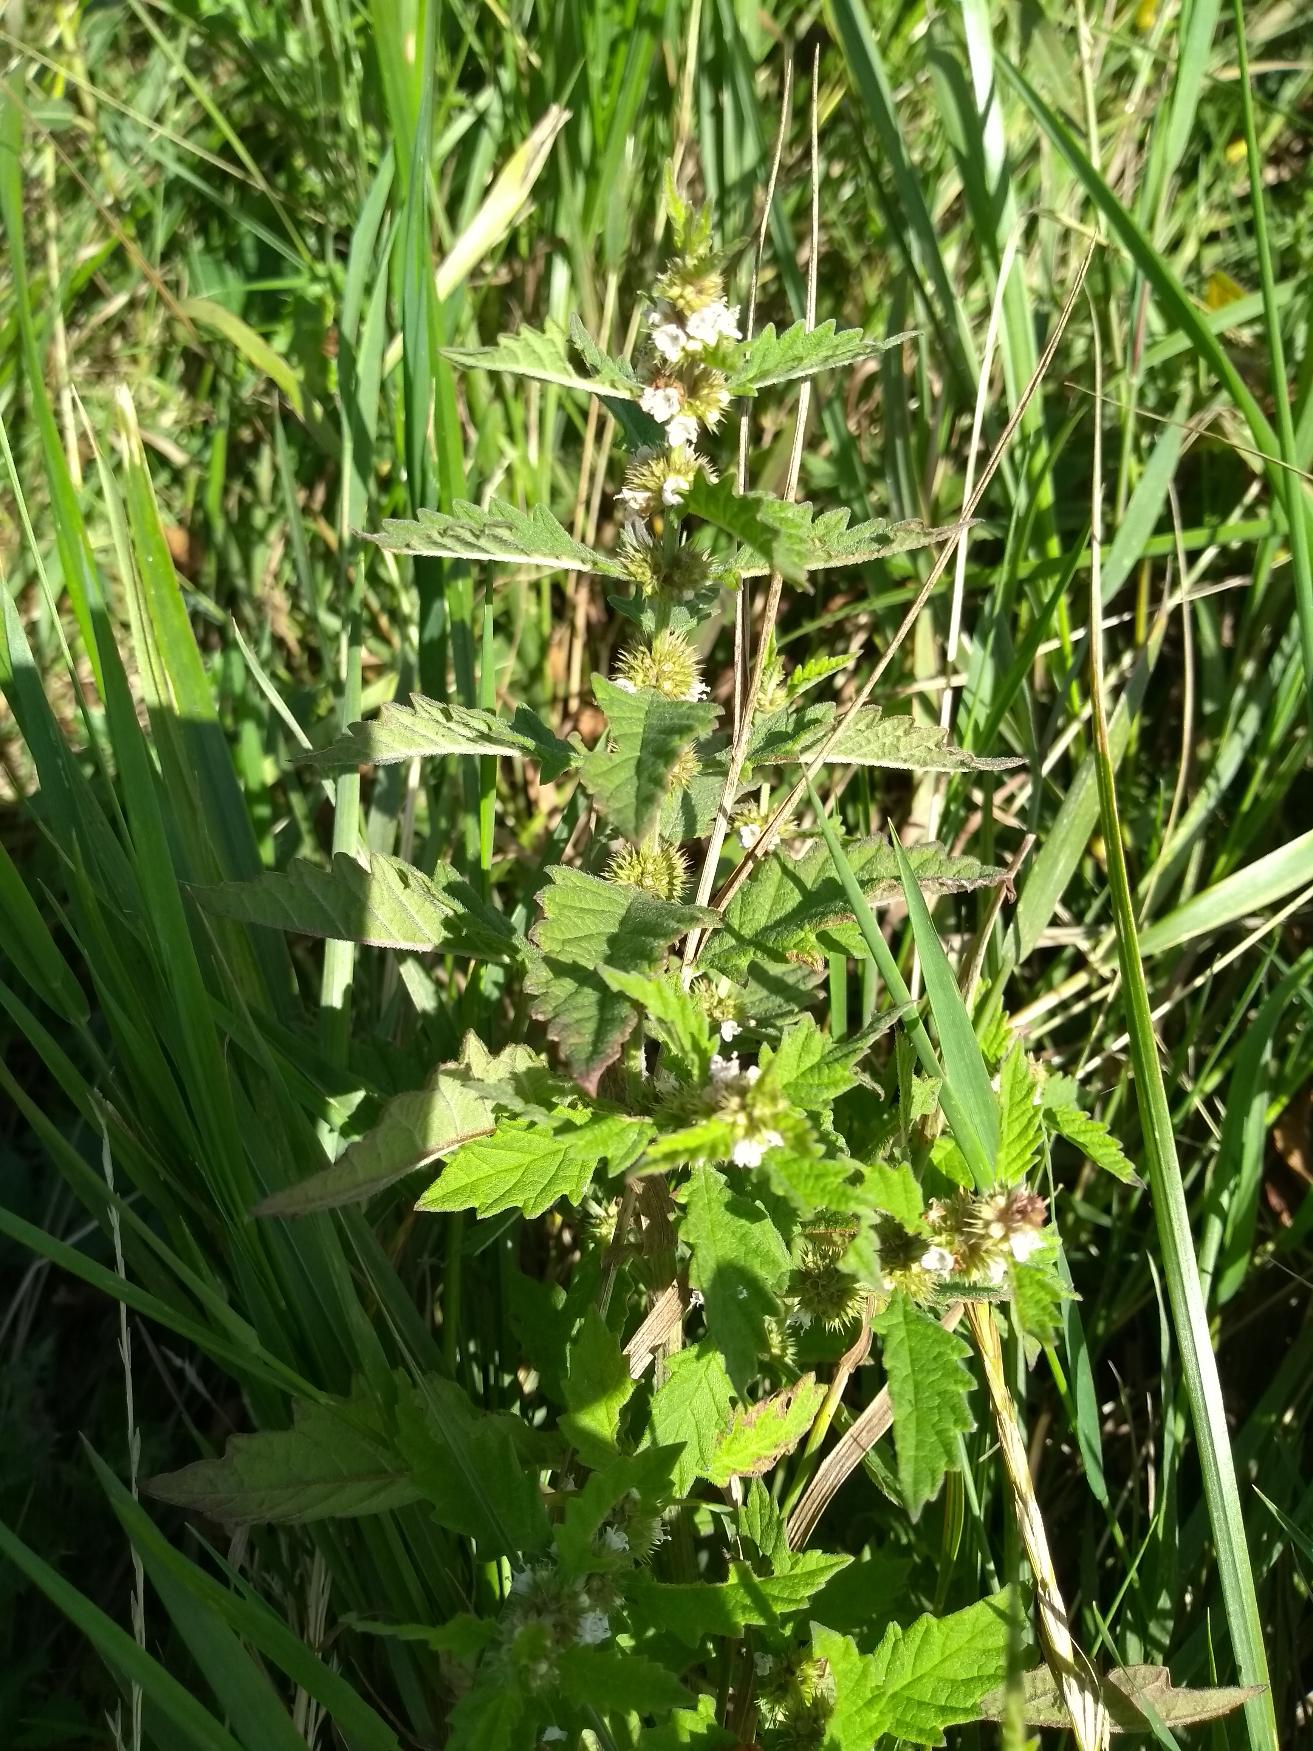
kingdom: Plantae
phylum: Tracheophyta
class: Magnoliopsida
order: Lamiales
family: Lamiaceae
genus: Lycopus
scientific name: Lycopus europaeus
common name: Sværtevæld
